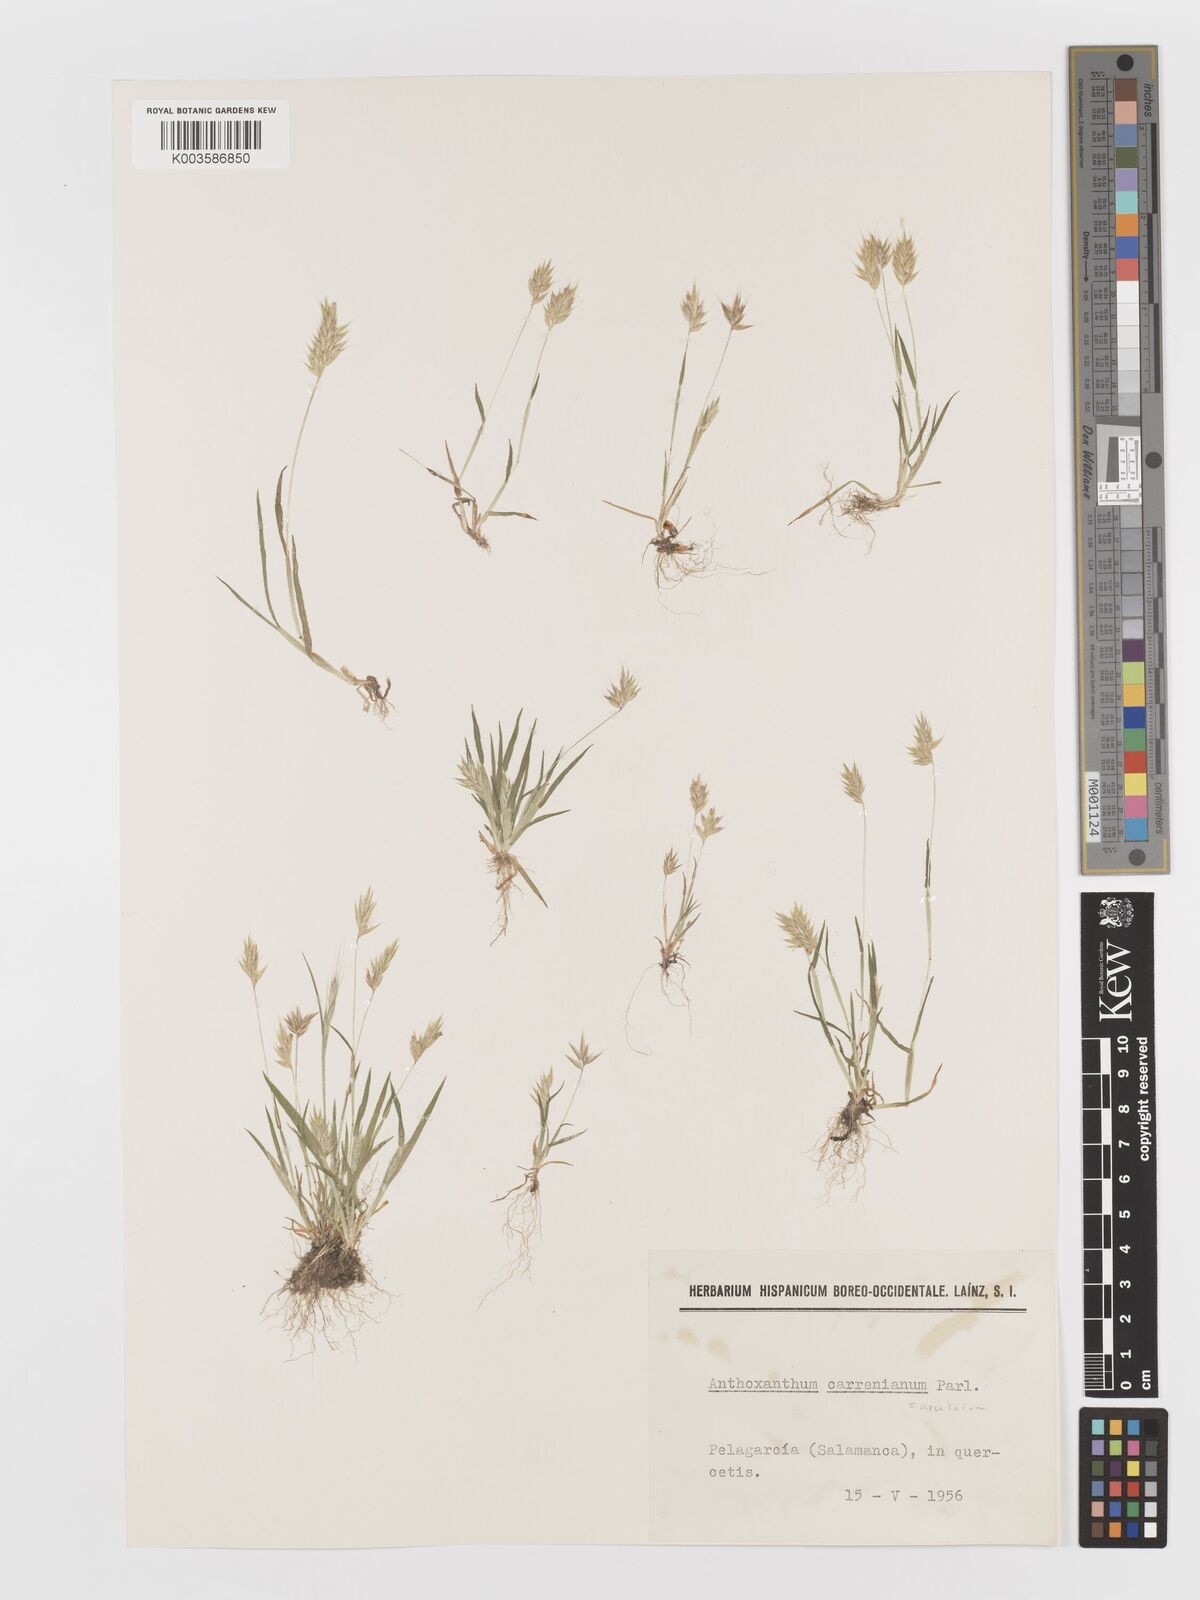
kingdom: Plantae
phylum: Tracheophyta
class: Liliopsida
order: Poales
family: Poaceae
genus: Anthoxanthum
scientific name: Anthoxanthum
